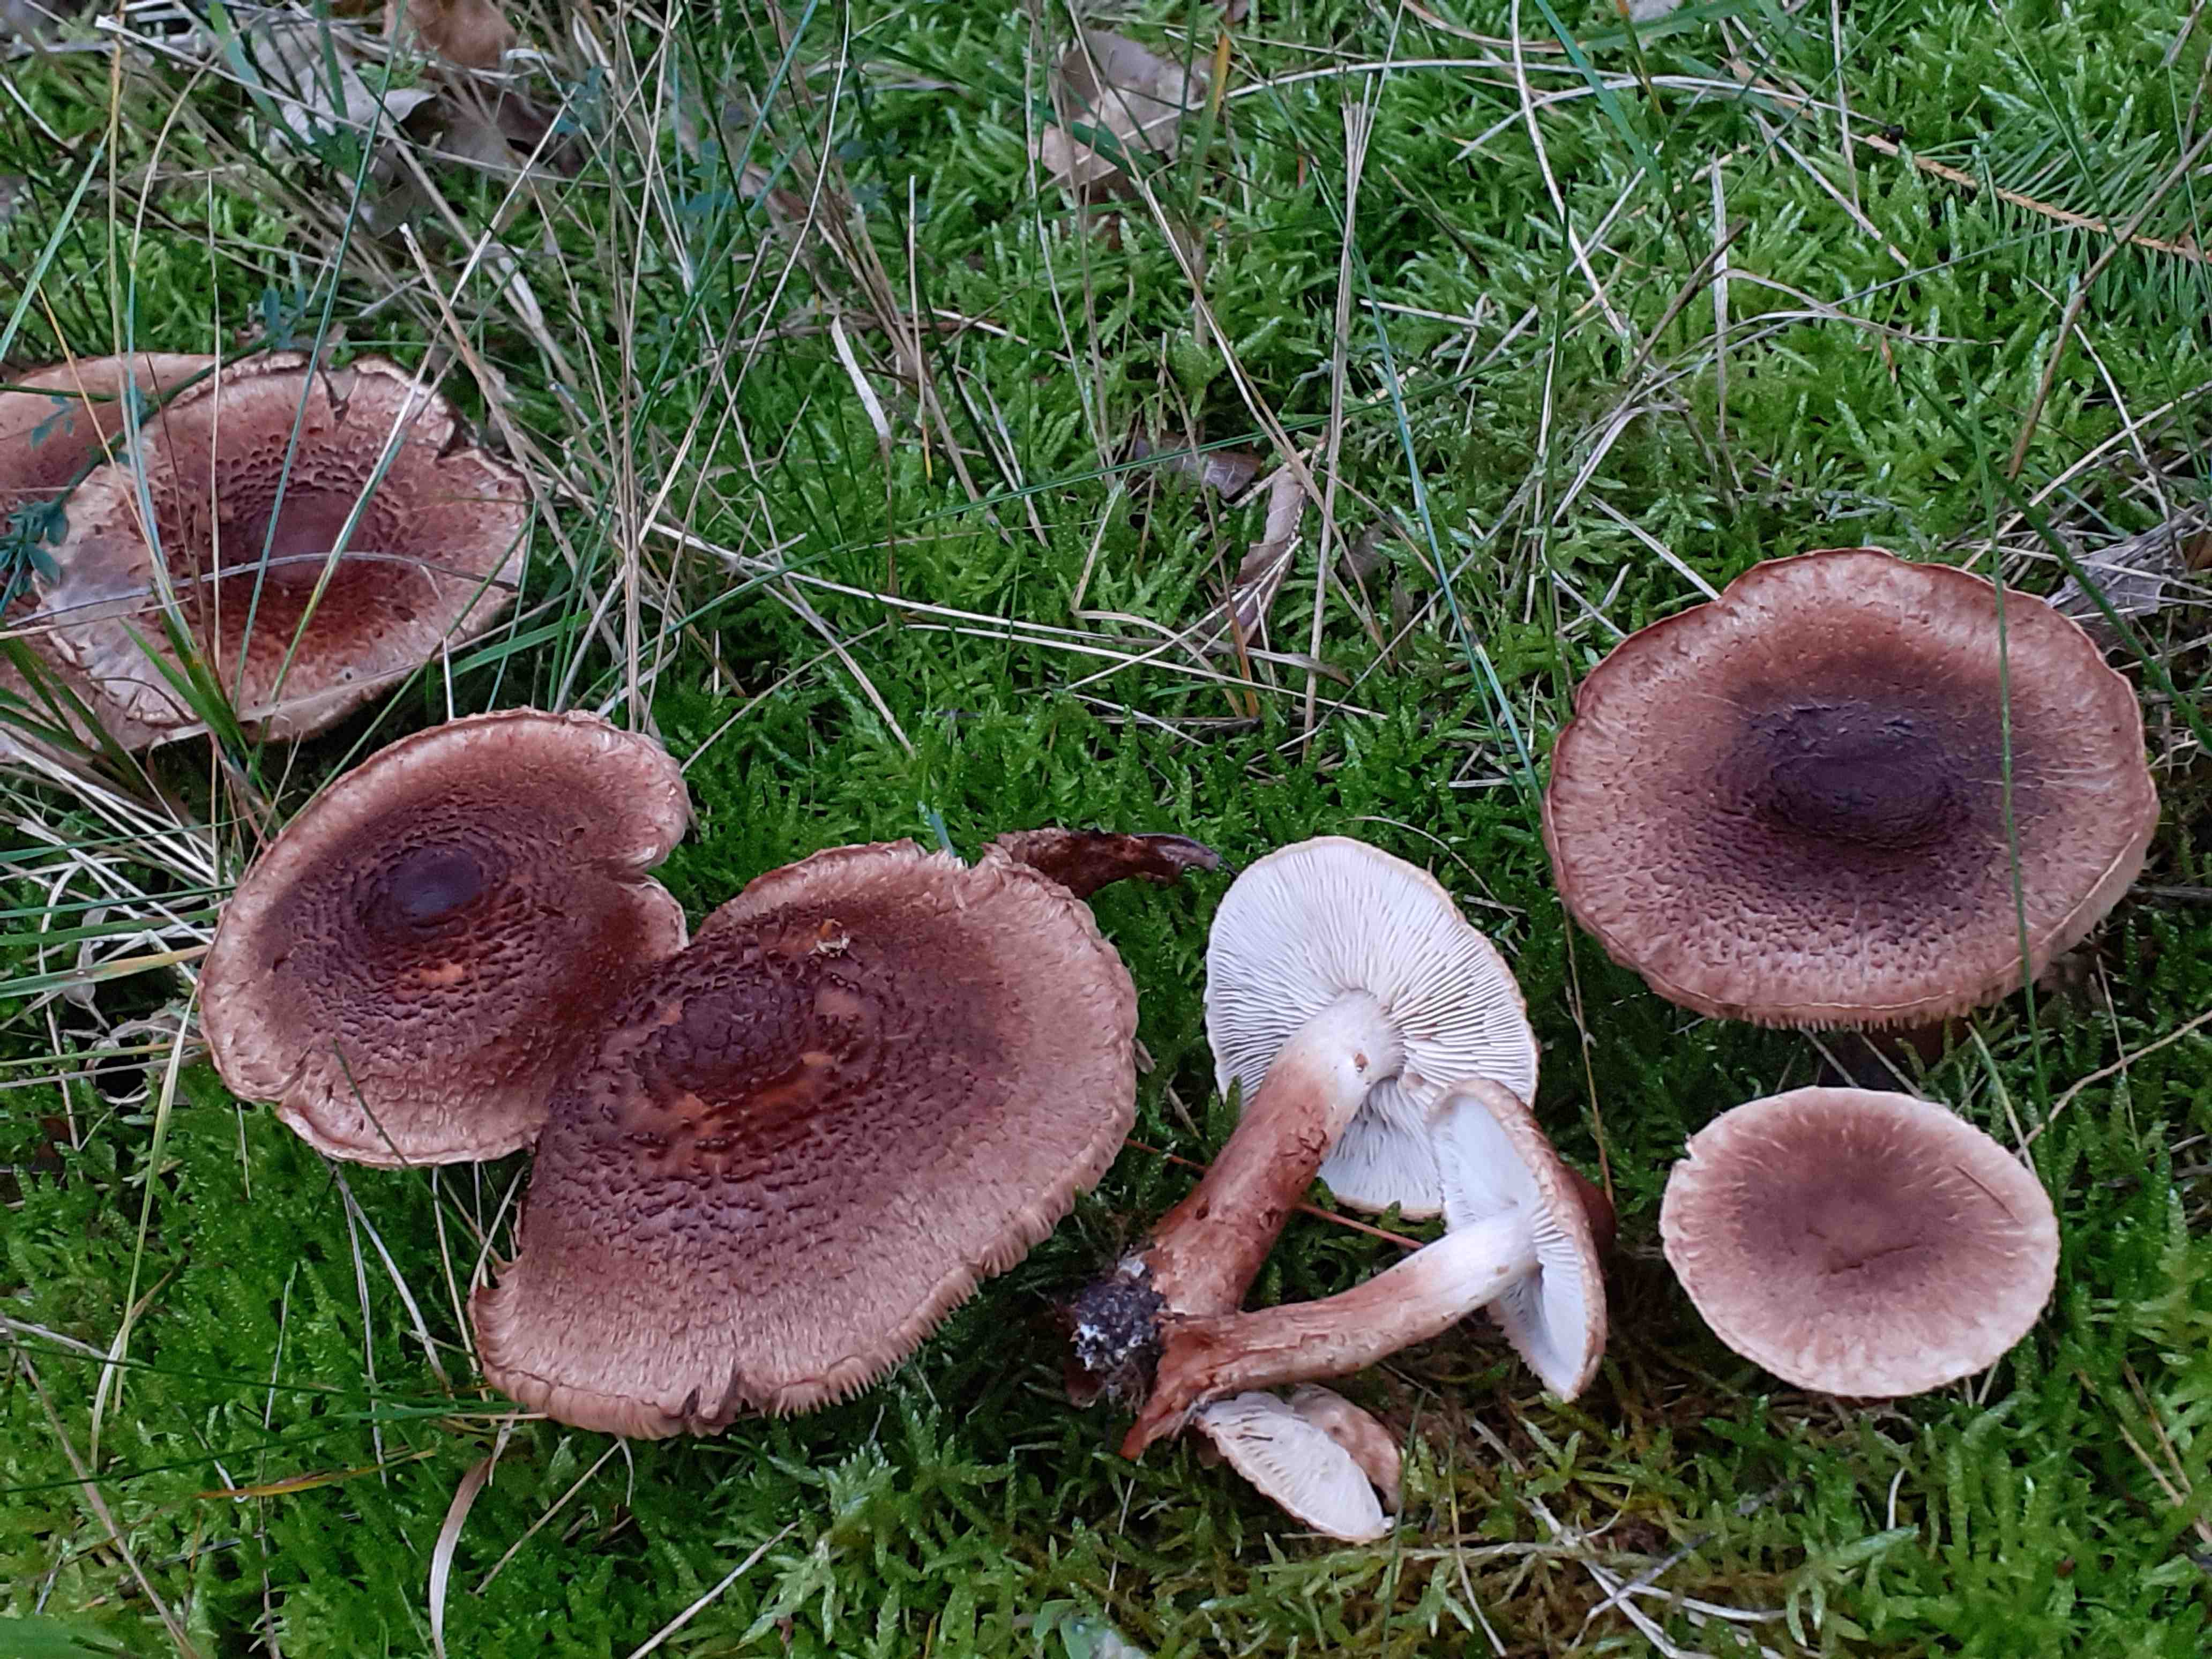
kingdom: Fungi
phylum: Basidiomycota
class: Agaricomycetes
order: Agaricales
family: Tricholomataceae
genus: Tricholoma
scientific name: Tricholoma vaccinum
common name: ko-ridderhat
